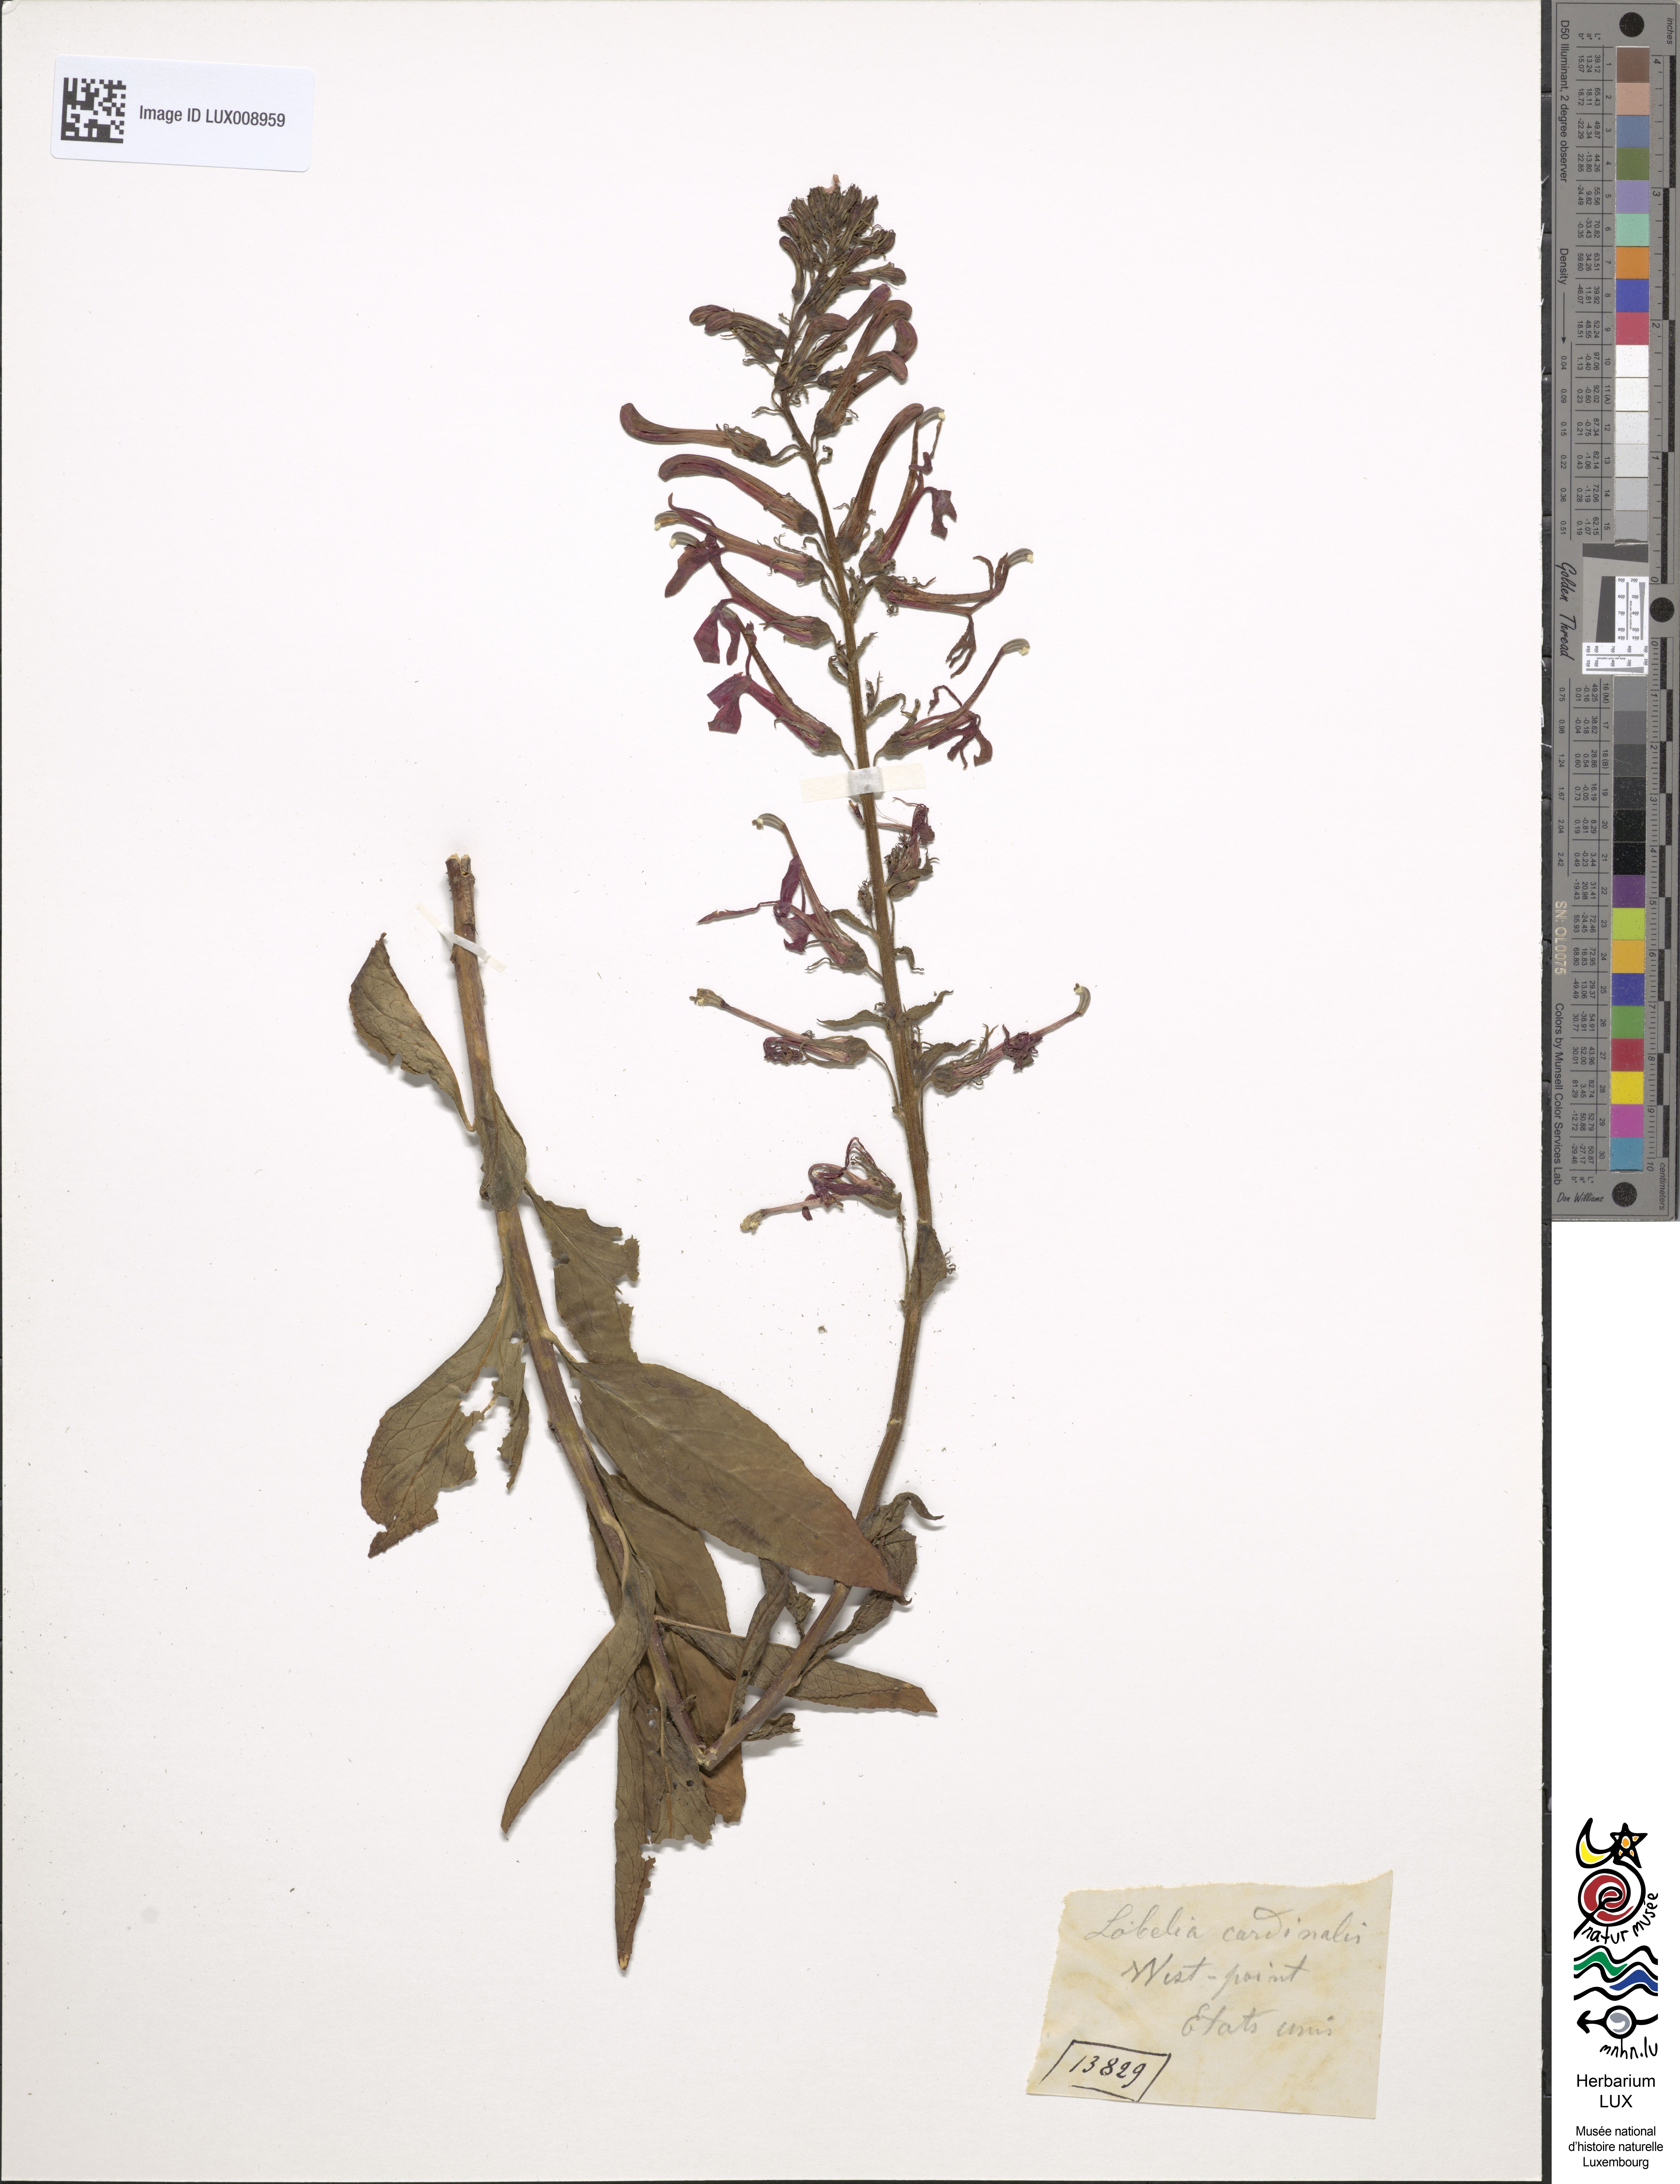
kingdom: Plantae
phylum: Tracheophyta
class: Magnoliopsida
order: Asterales
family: Campanulaceae
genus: Lobelia
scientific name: Lobelia cardinalis
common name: Cardinal flower
